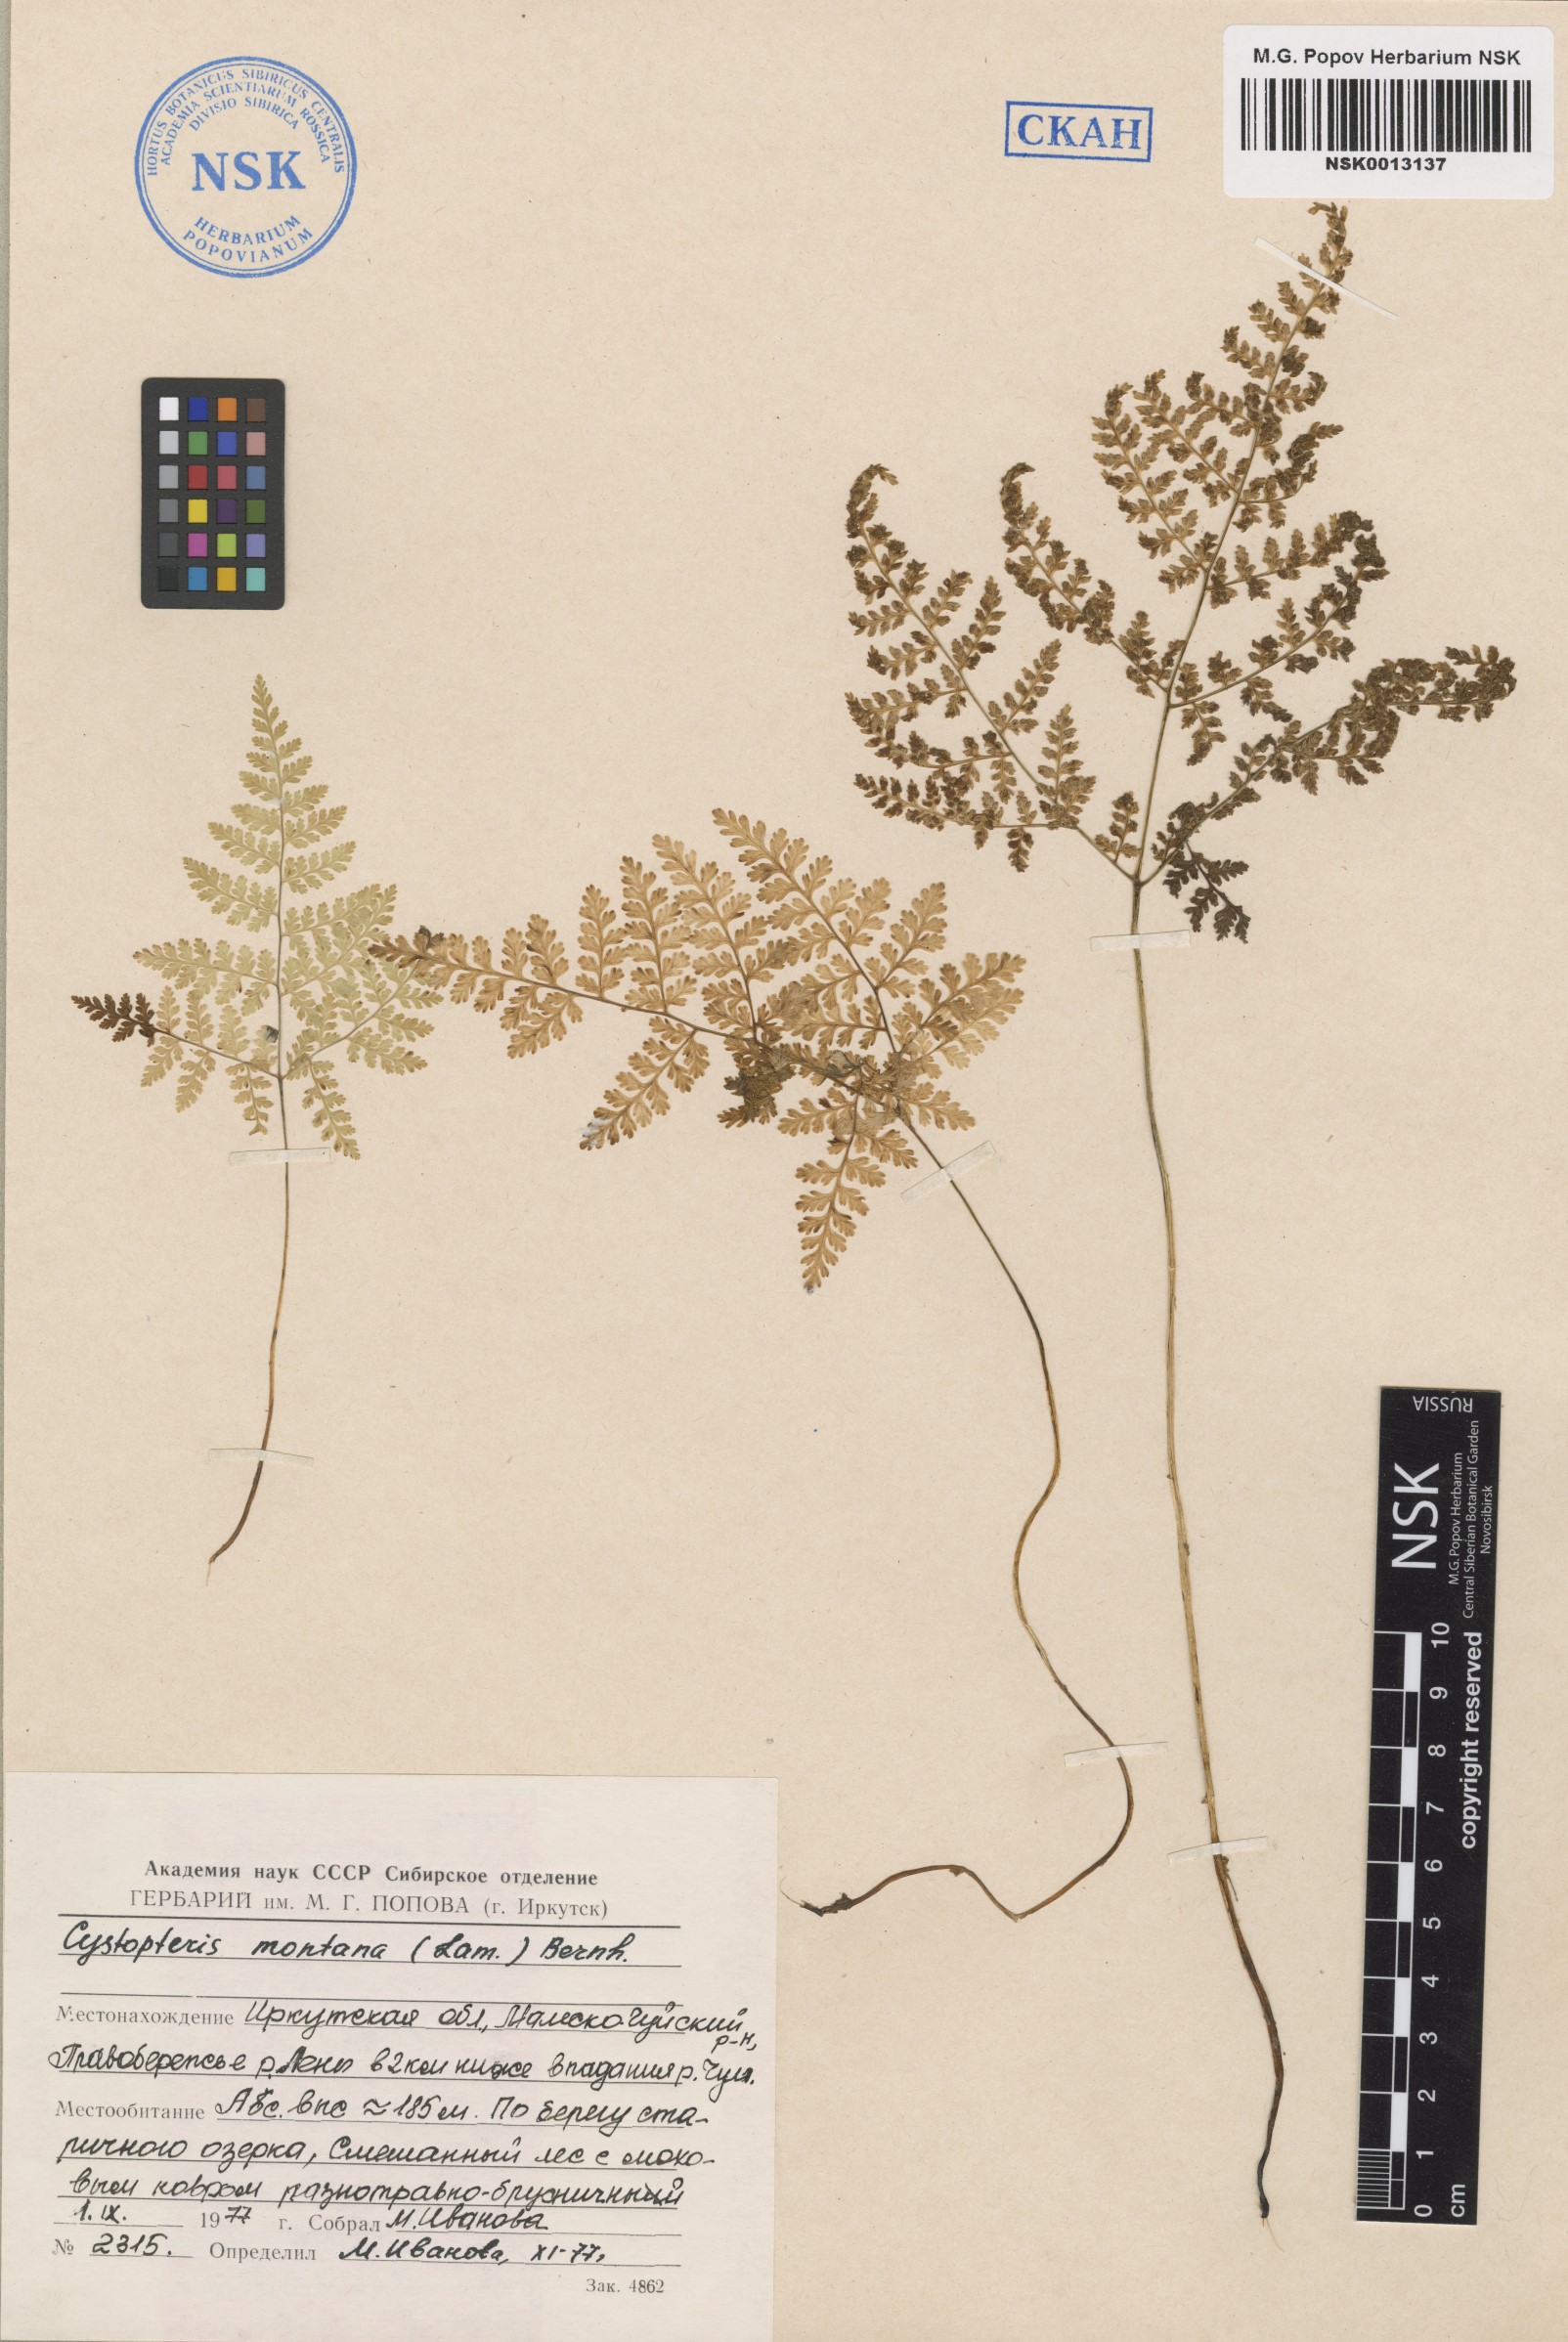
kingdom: Plantae
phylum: Tracheophyta
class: Polypodiopsida
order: Polypodiales
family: Cystopteridaceae
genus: Cystopteris
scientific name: Cystopteris montana
